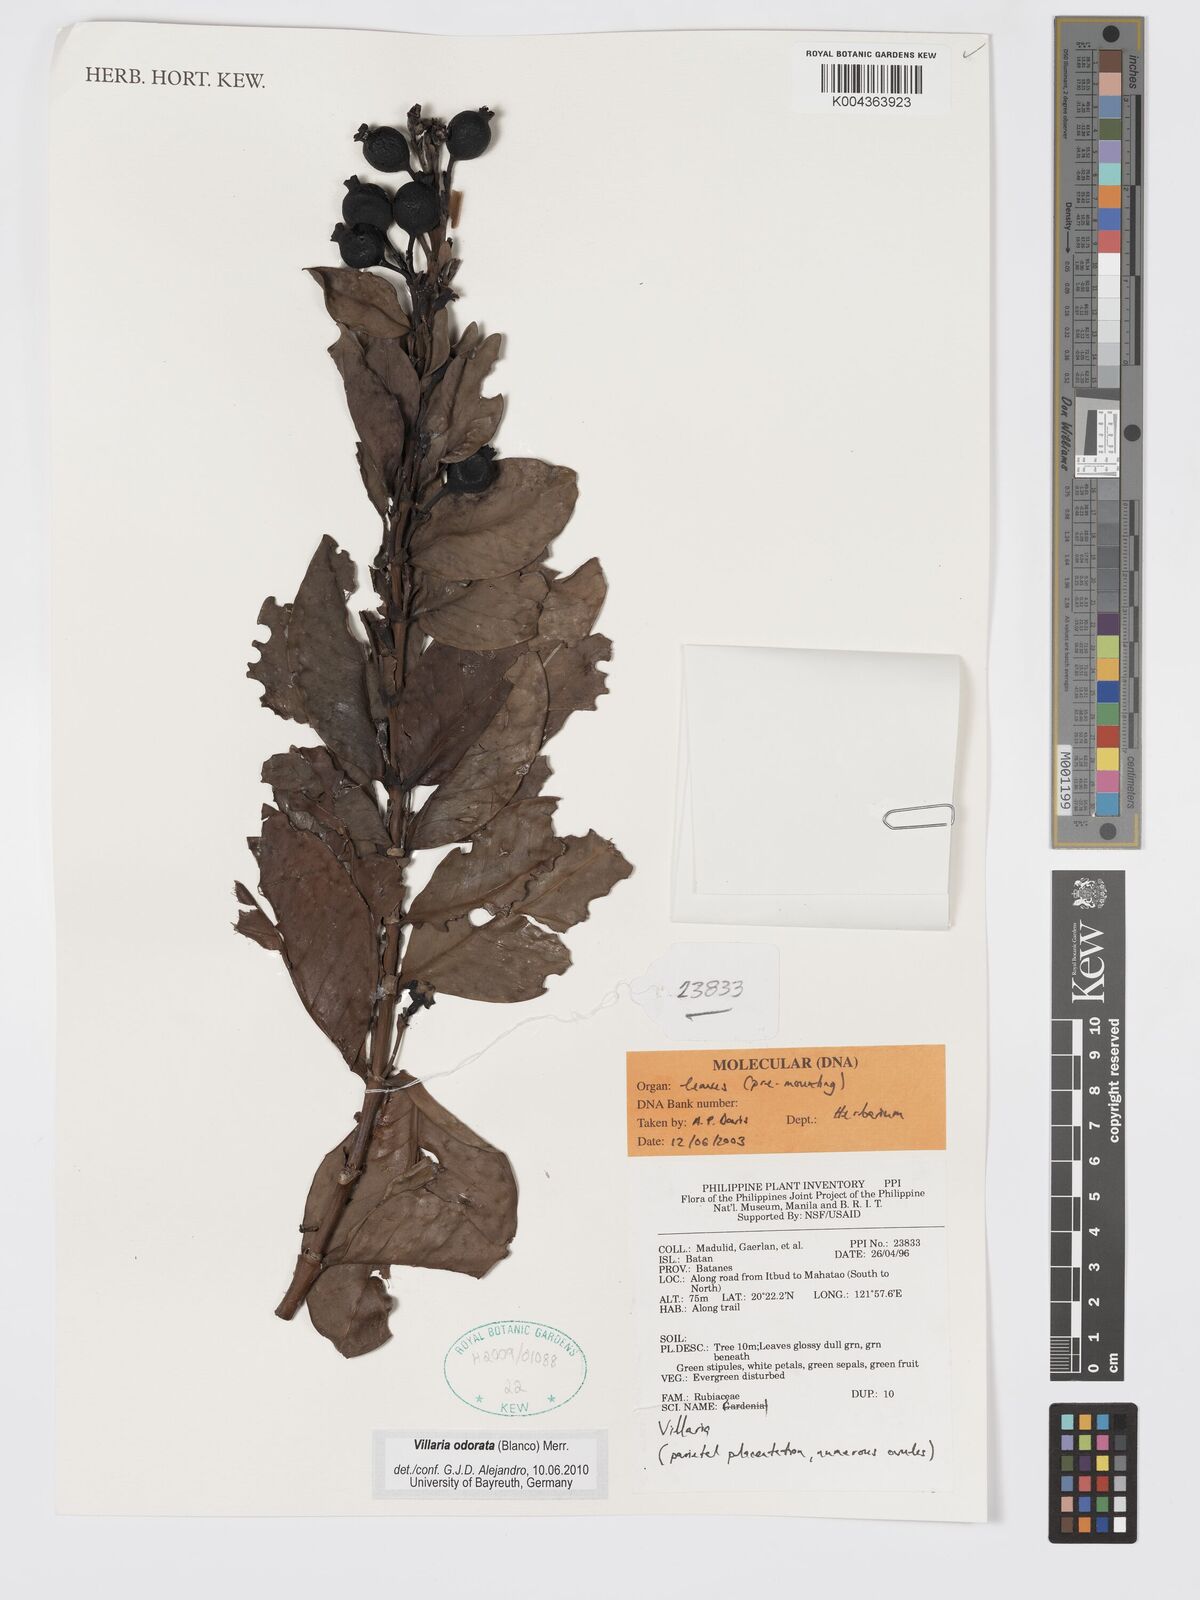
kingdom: Plantae
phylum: Tracheophyta
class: Magnoliopsida
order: Gentianales
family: Rubiaceae
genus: Villaria
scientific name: Villaria odorata
